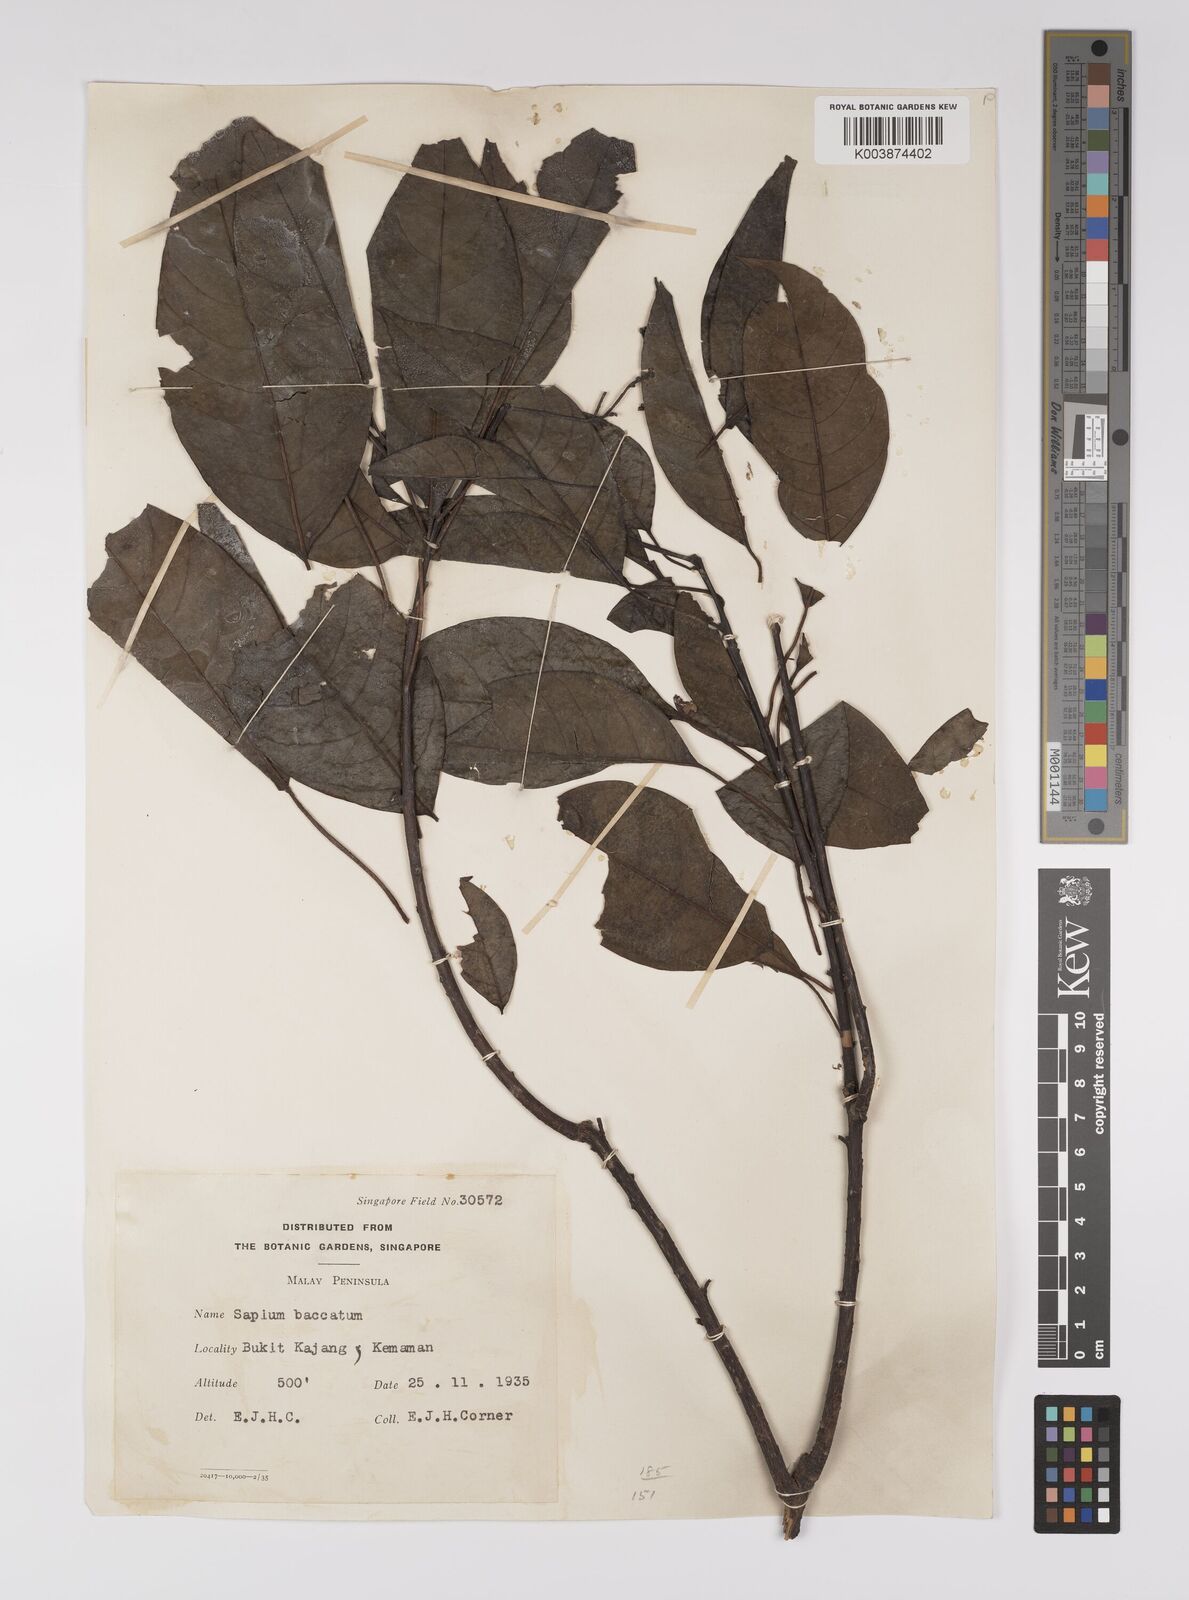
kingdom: Plantae
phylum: Tracheophyta
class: Magnoliopsida
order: Malpighiales
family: Euphorbiaceae
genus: Balakata
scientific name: Balakata baccata
